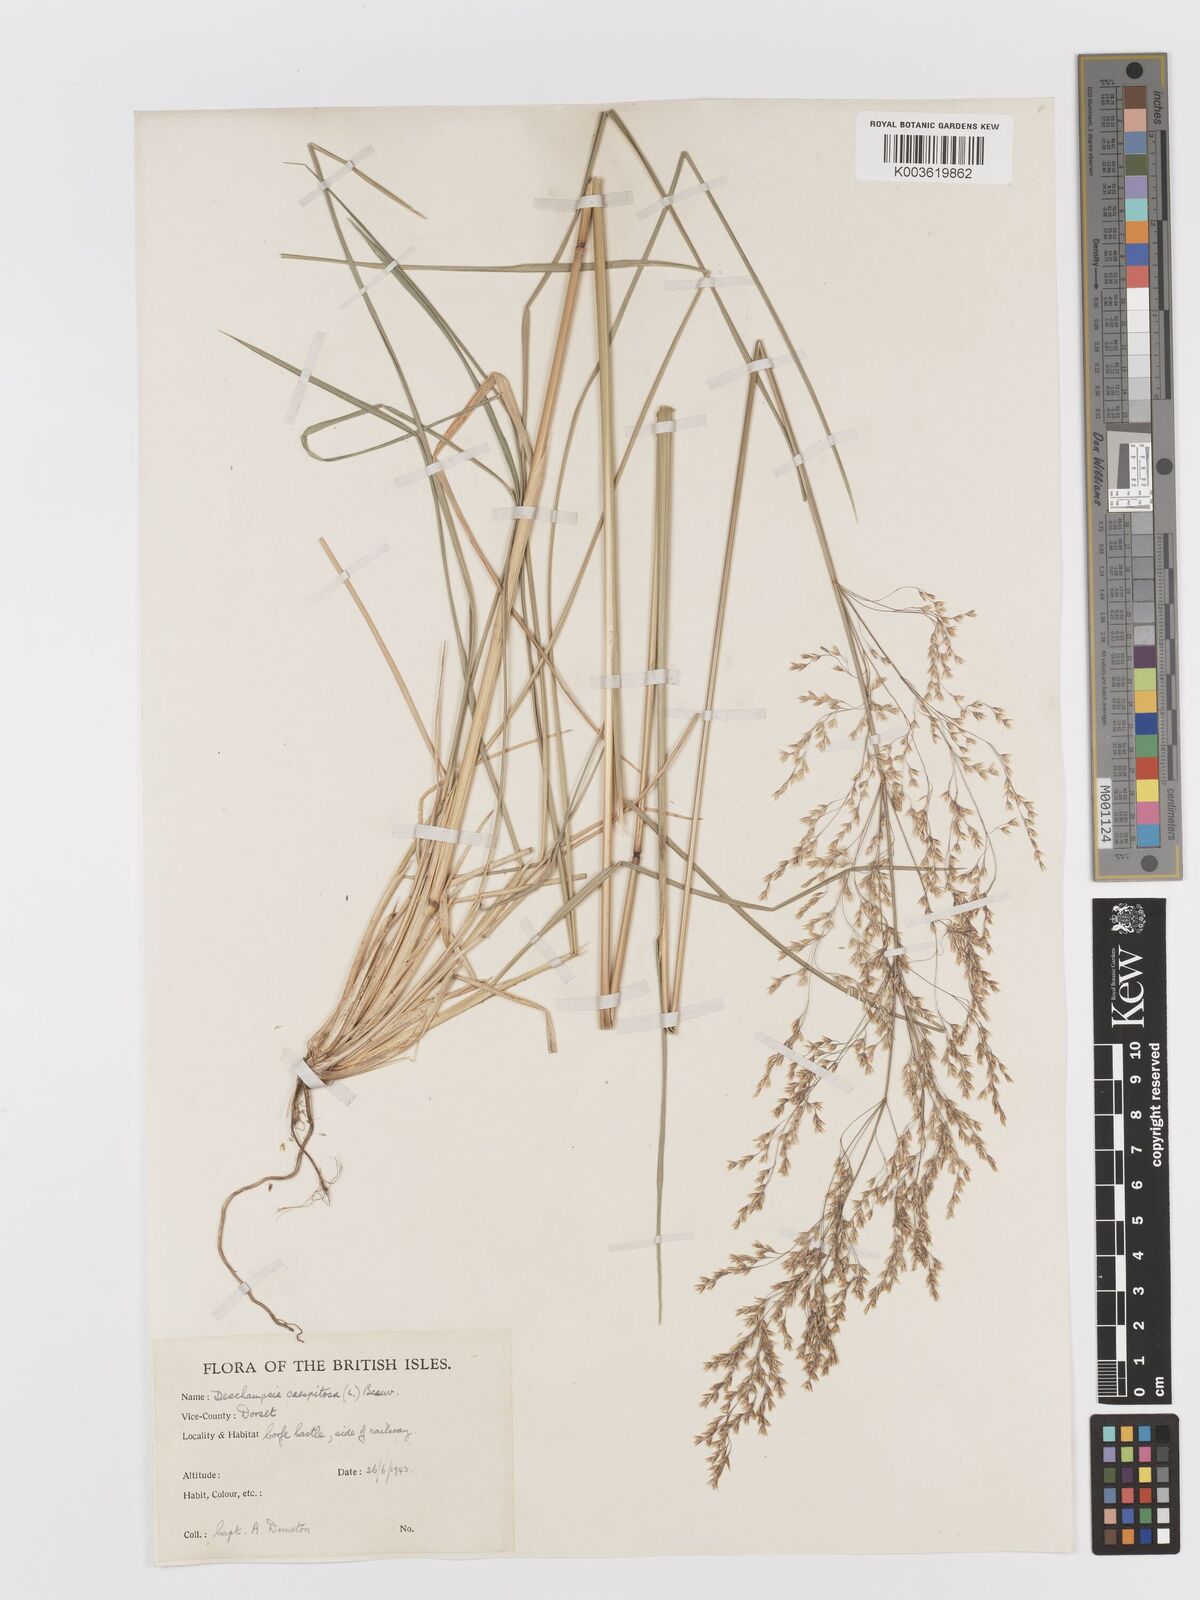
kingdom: Plantae
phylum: Tracheophyta
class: Liliopsida
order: Poales
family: Poaceae
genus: Deschampsia
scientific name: Deschampsia cespitosa
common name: Tufted hair-grass
